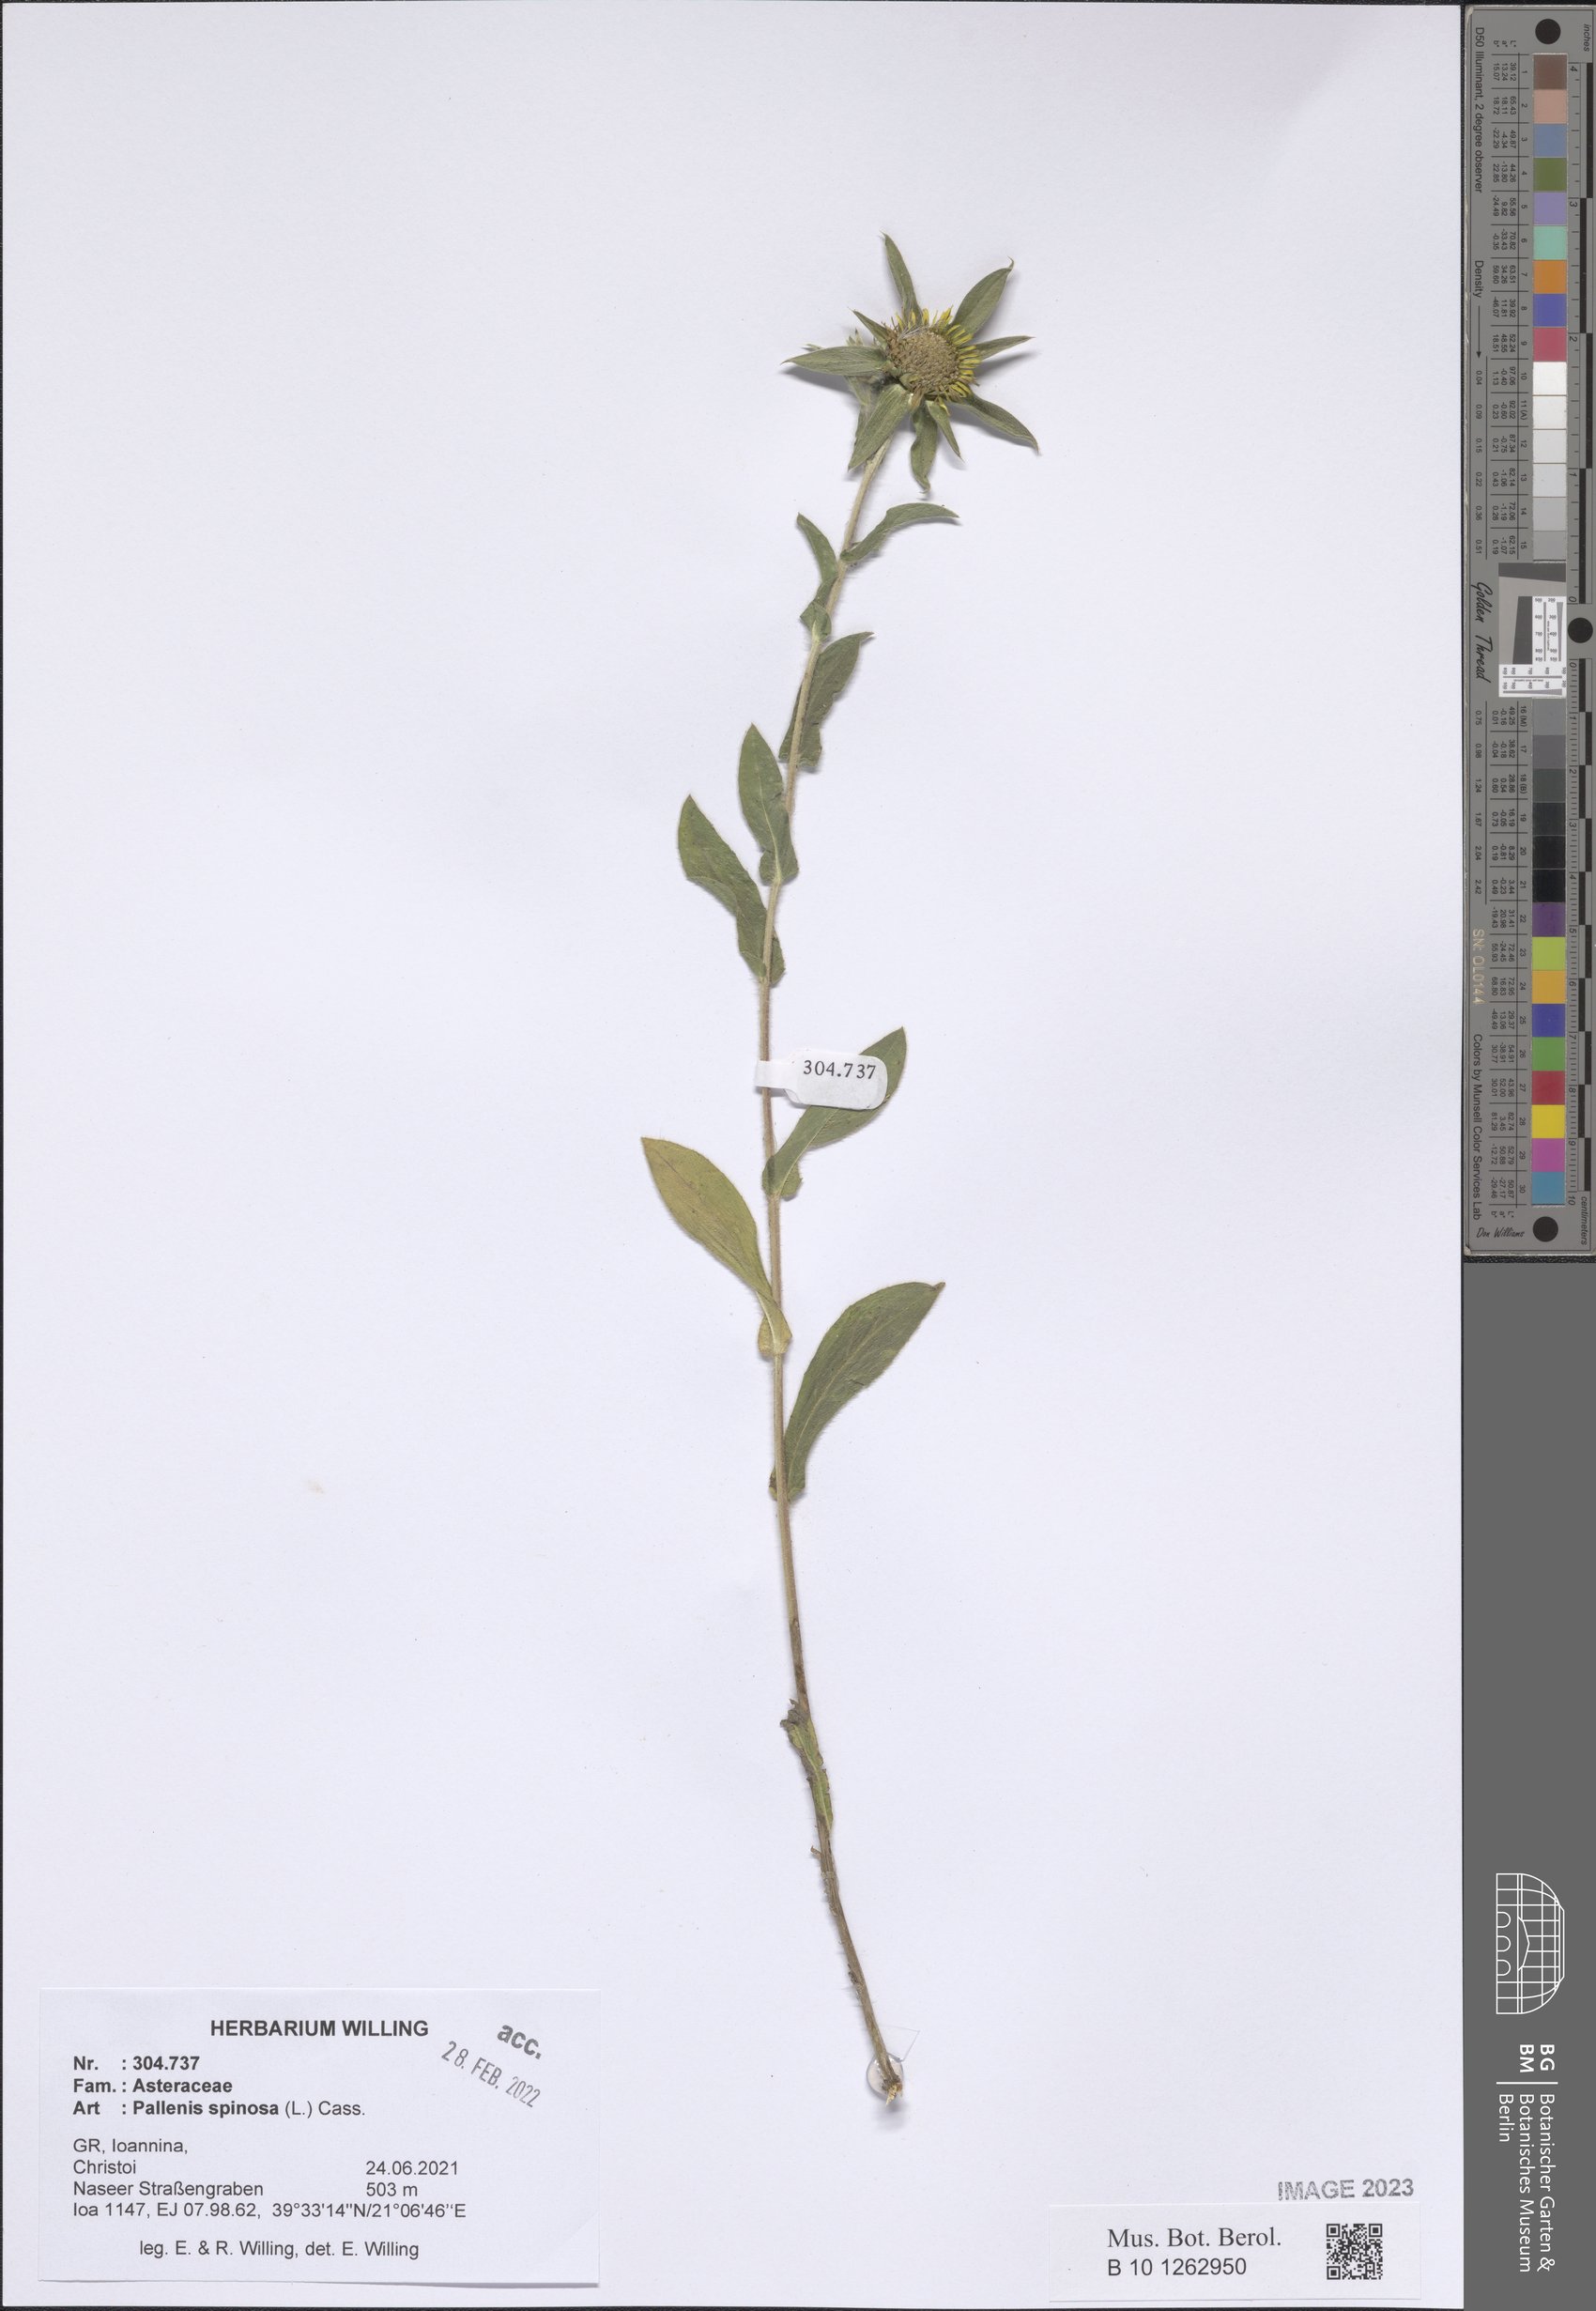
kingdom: Plantae
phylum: Tracheophyta
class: Magnoliopsida
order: Asterales
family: Asteraceae
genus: Pallenis
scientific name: Pallenis spinosa
